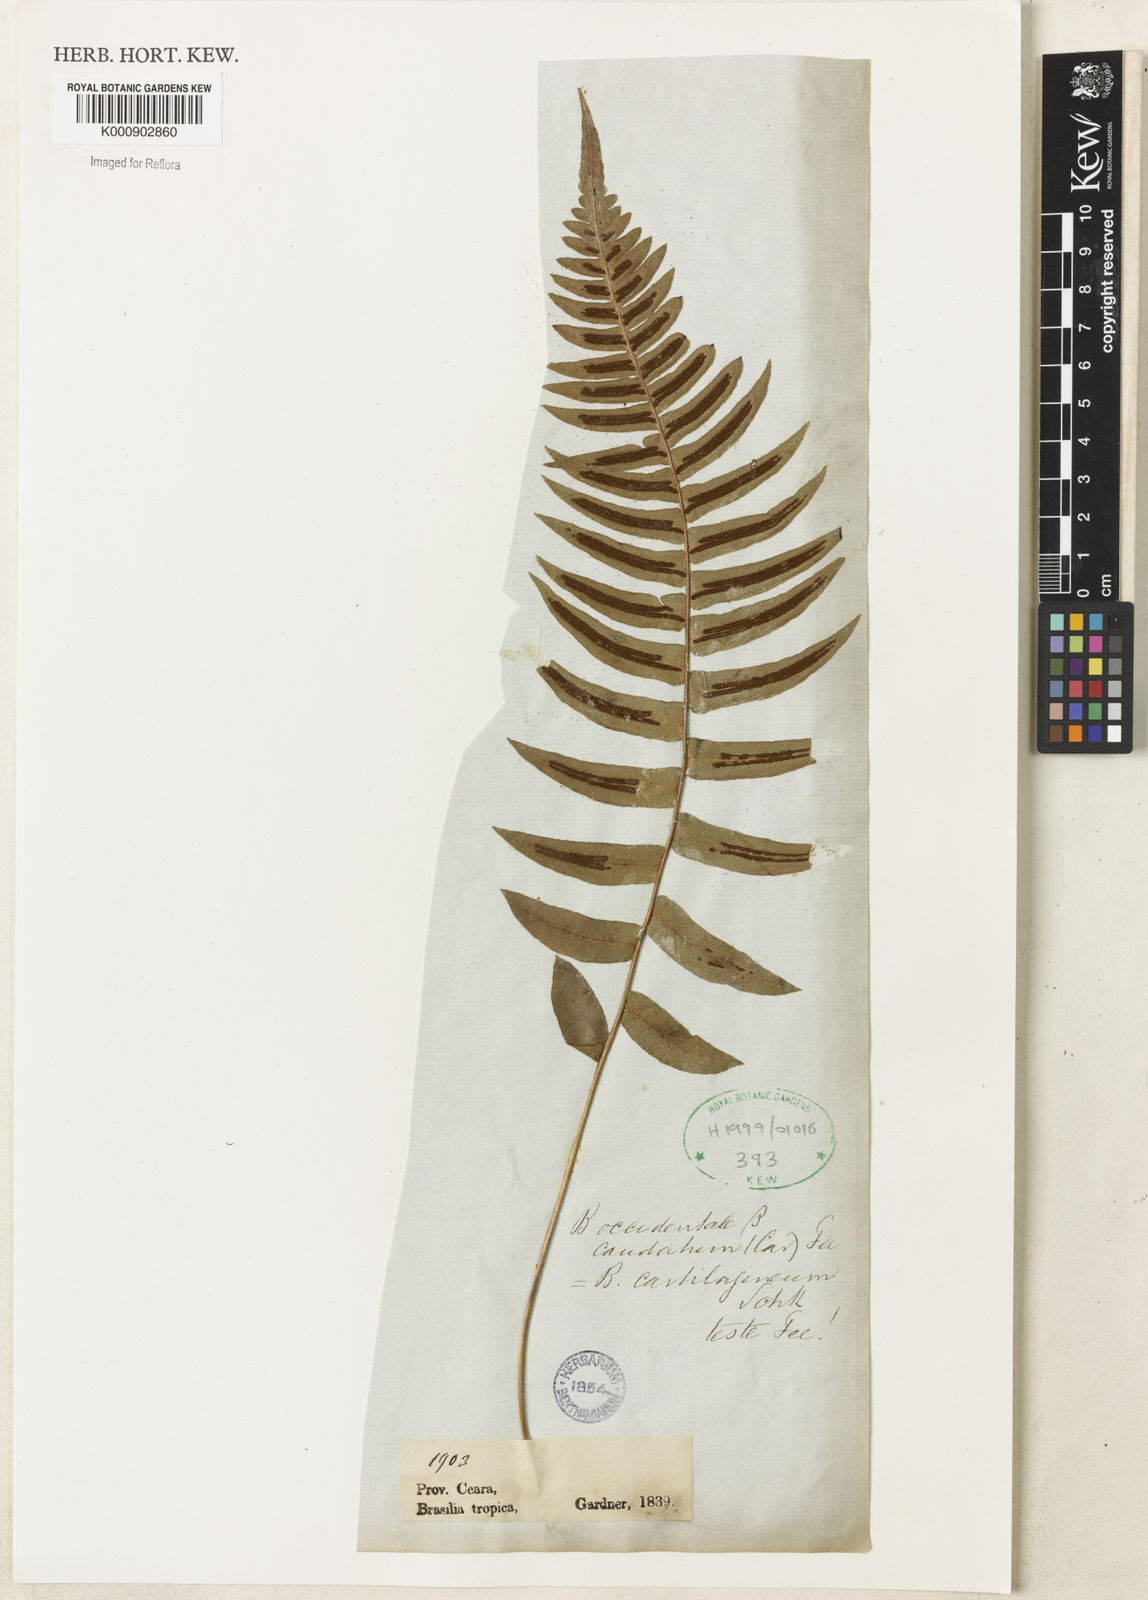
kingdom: Plantae
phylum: Tracheophyta
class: Polypodiopsida
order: Polypodiales
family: Blechnaceae
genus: Blechnum
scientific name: Blechnum occidentale
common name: Hammock fern
